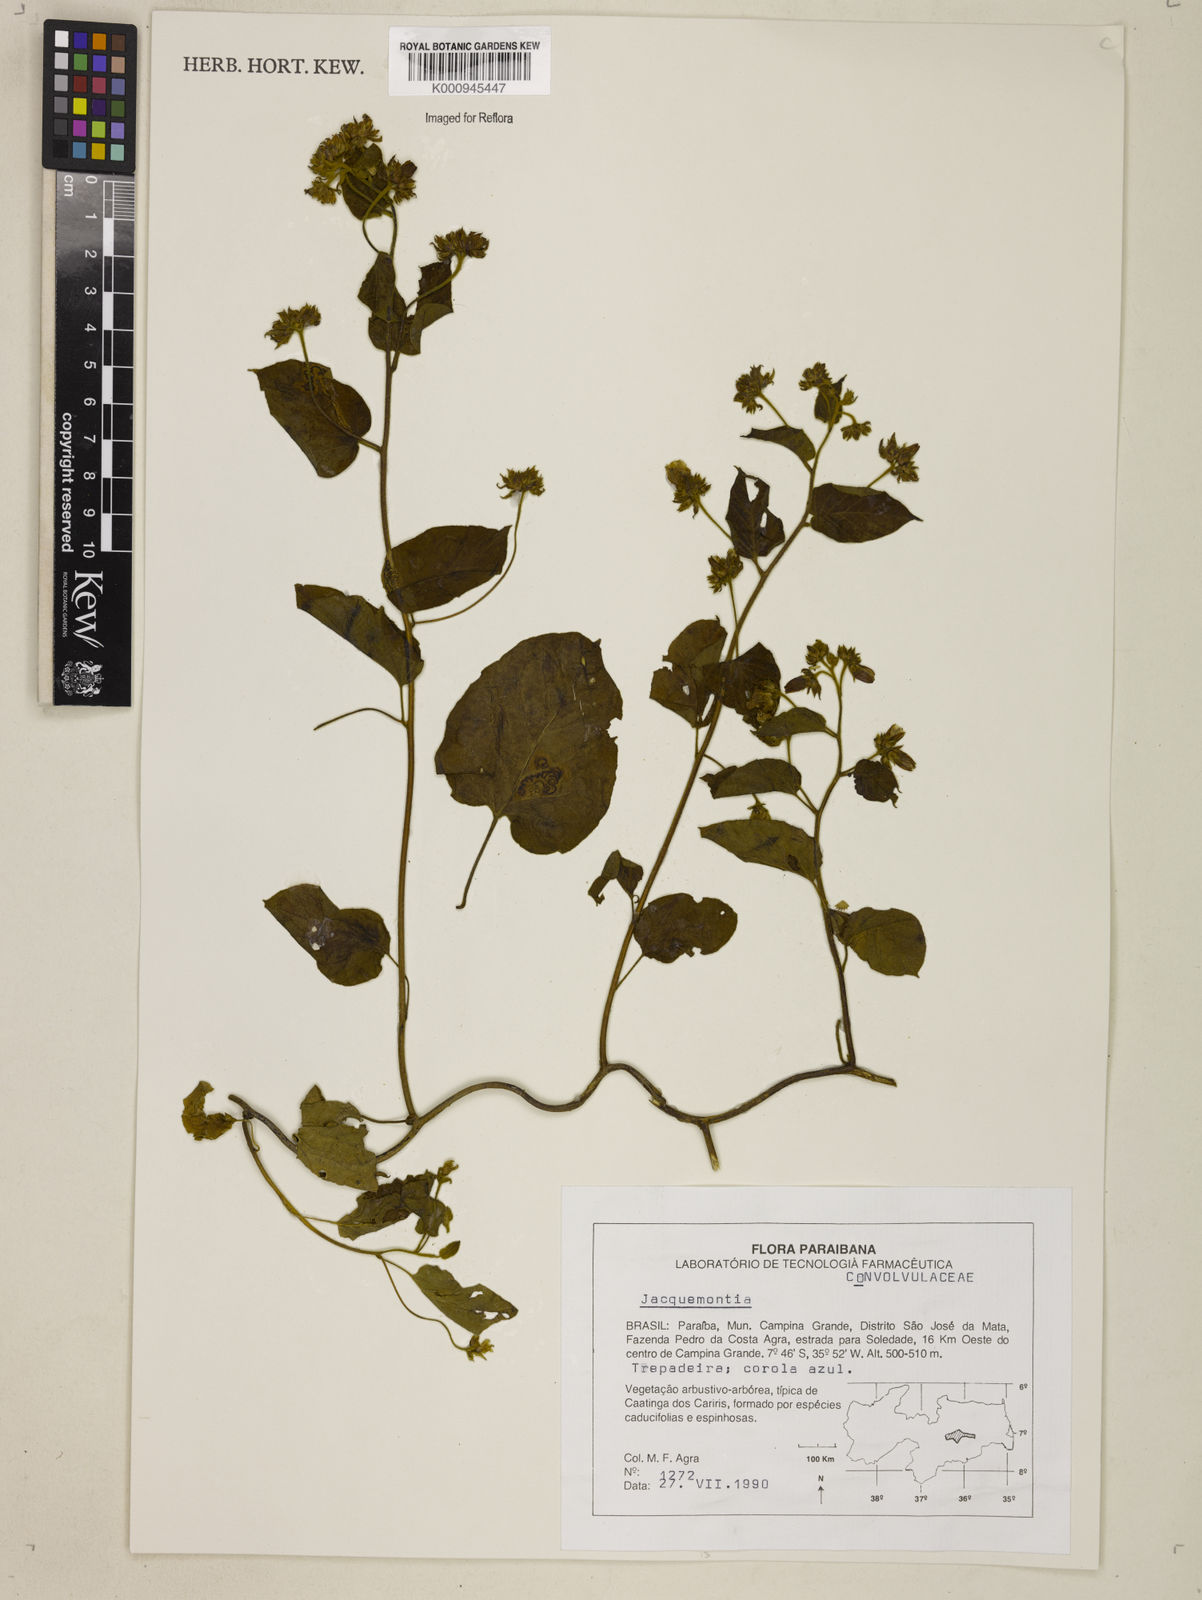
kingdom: Plantae
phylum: Tracheophyta
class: Magnoliopsida
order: Solanales
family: Convolvulaceae
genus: Jacquemontia
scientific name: Jacquemontia
